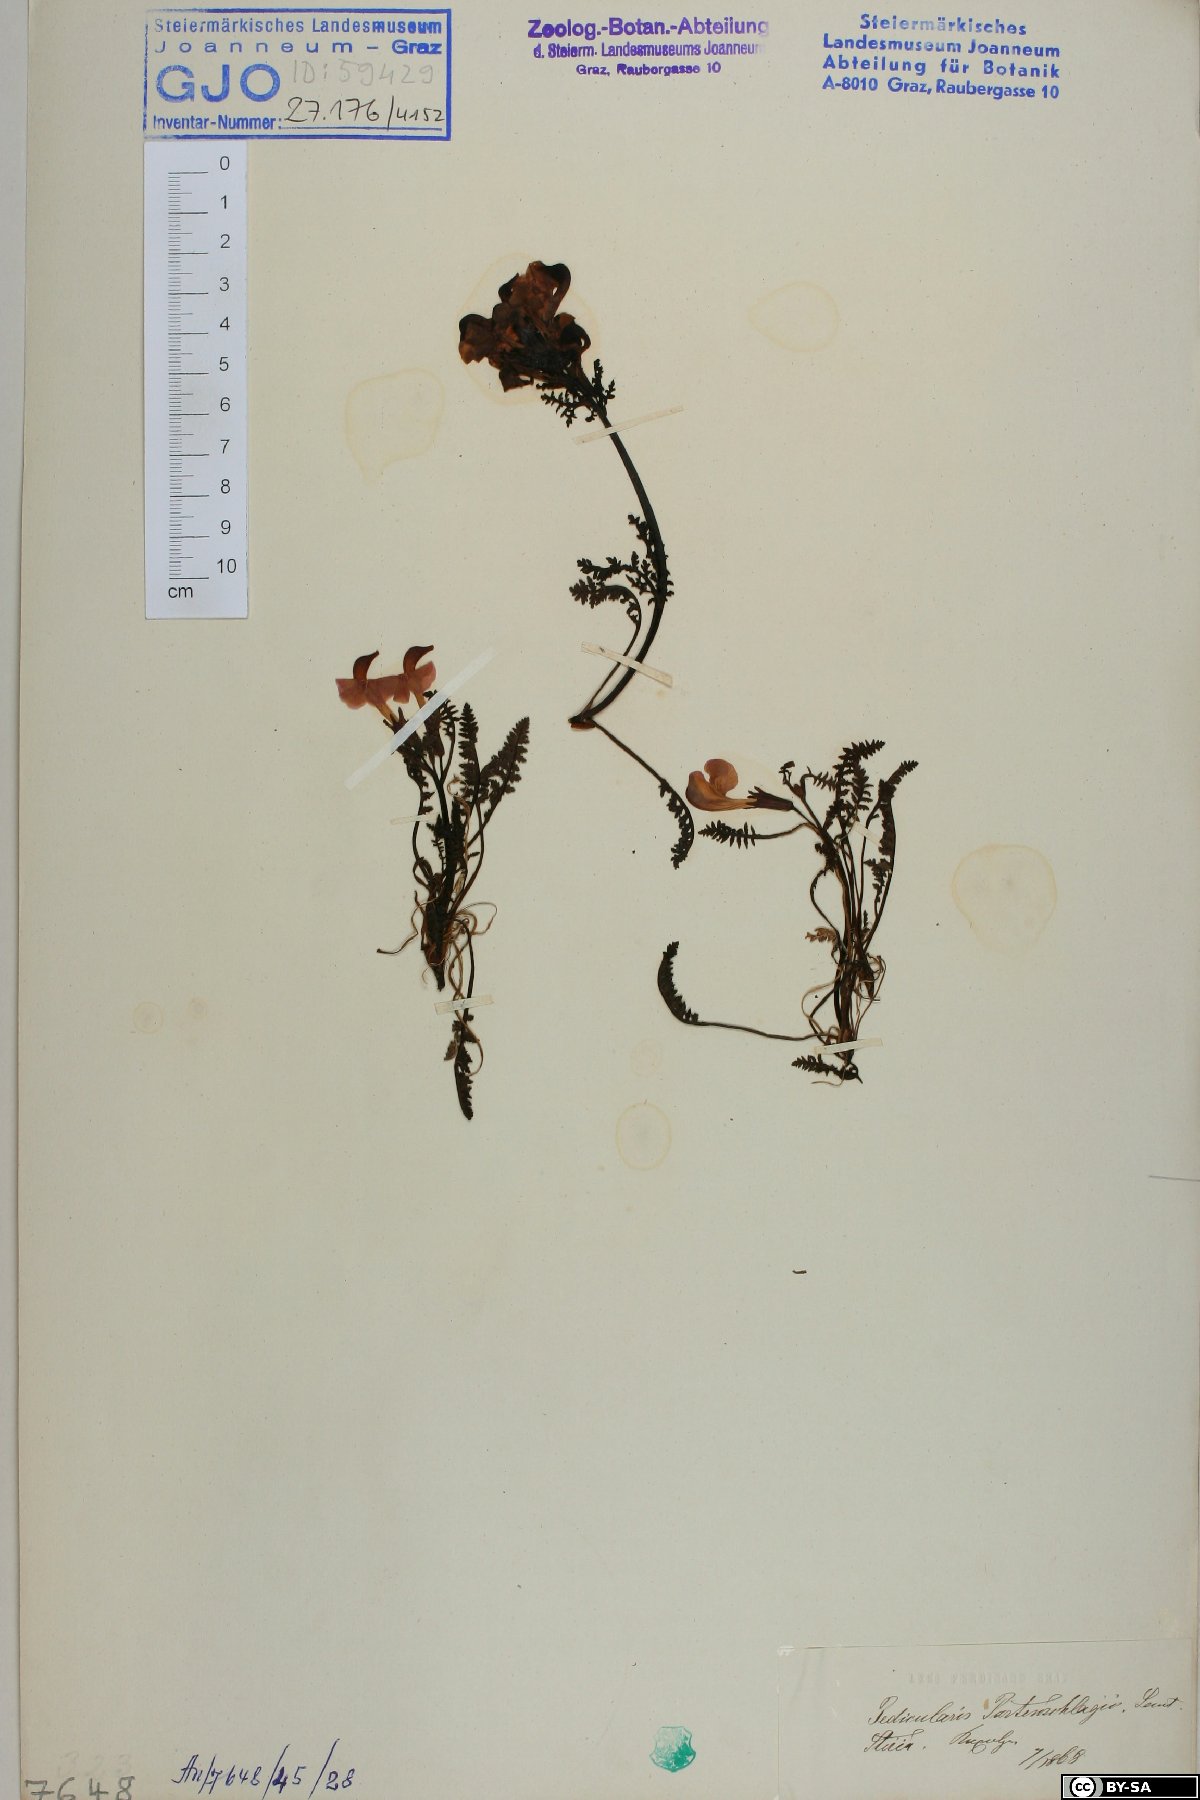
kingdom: Plantae
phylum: Tracheophyta
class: Magnoliopsida
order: Lamiales
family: Orobanchaceae
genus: Pedicularis
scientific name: Pedicularis portenschlagii
